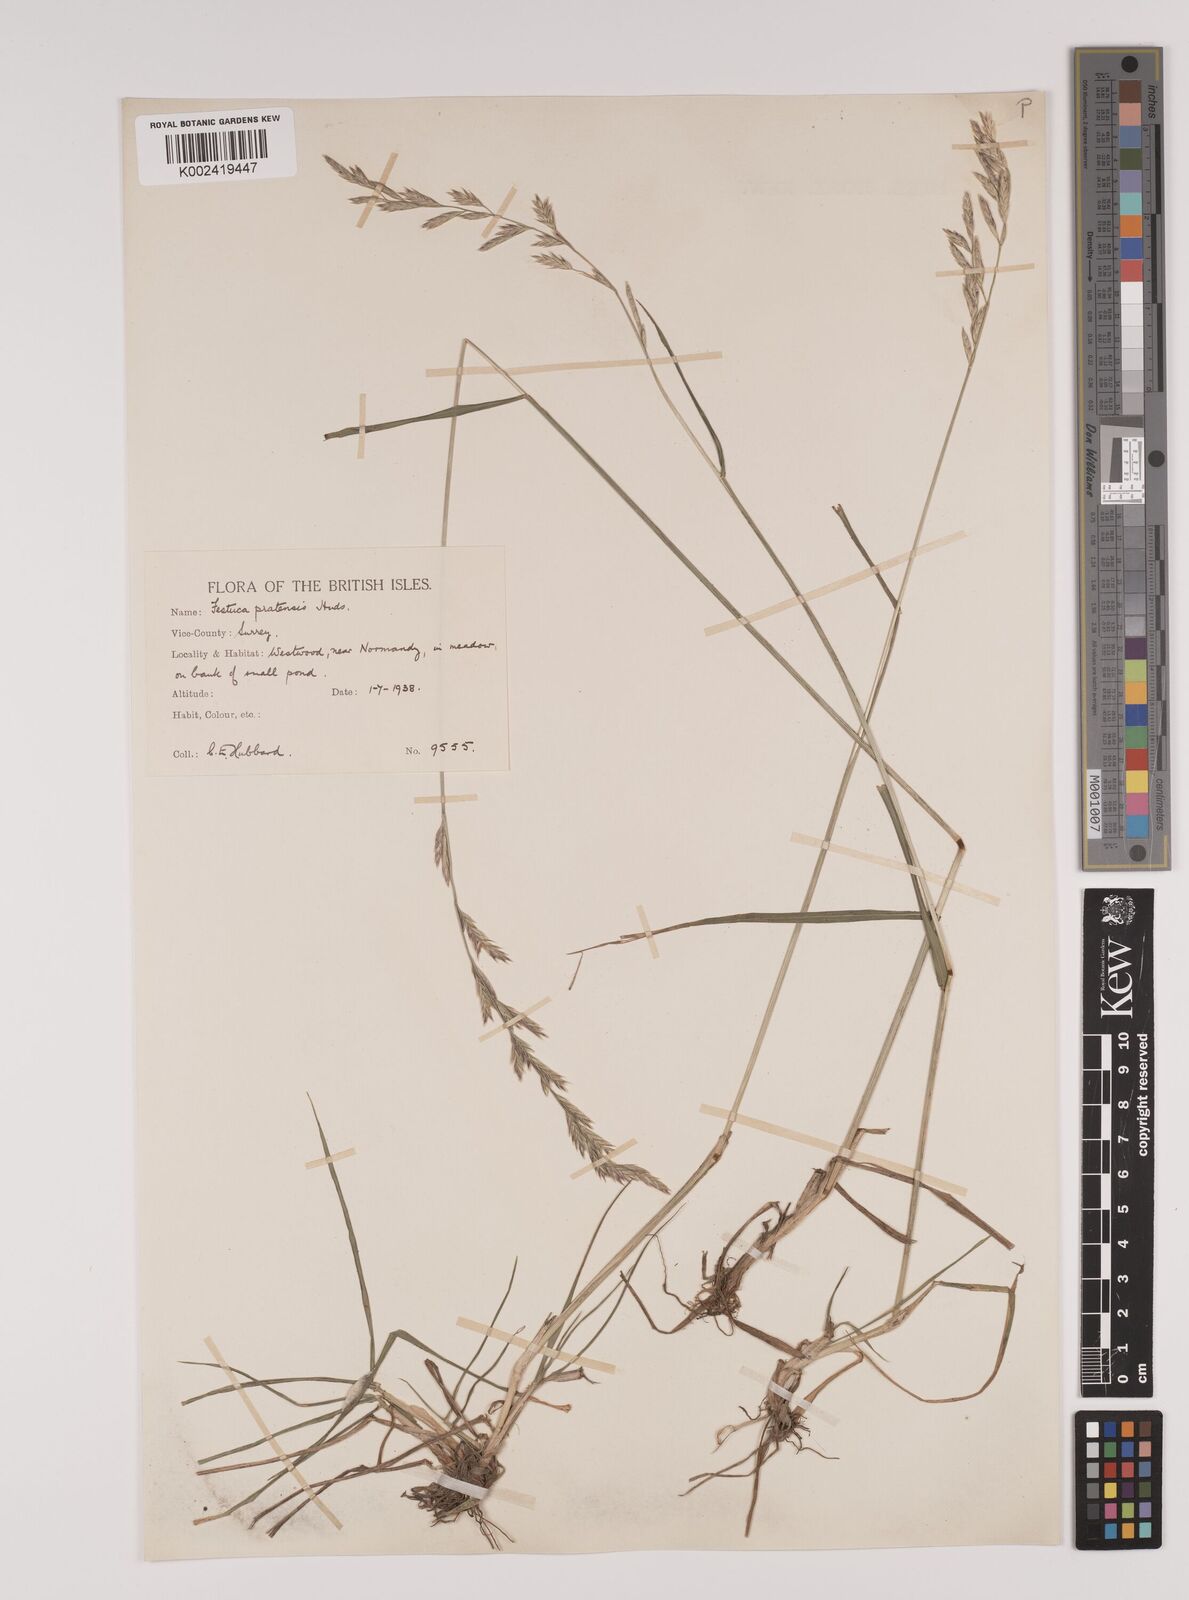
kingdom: Plantae
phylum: Tracheophyta
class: Liliopsida
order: Poales
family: Poaceae
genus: Lolium
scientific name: Lolium pratense
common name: Dover grass
